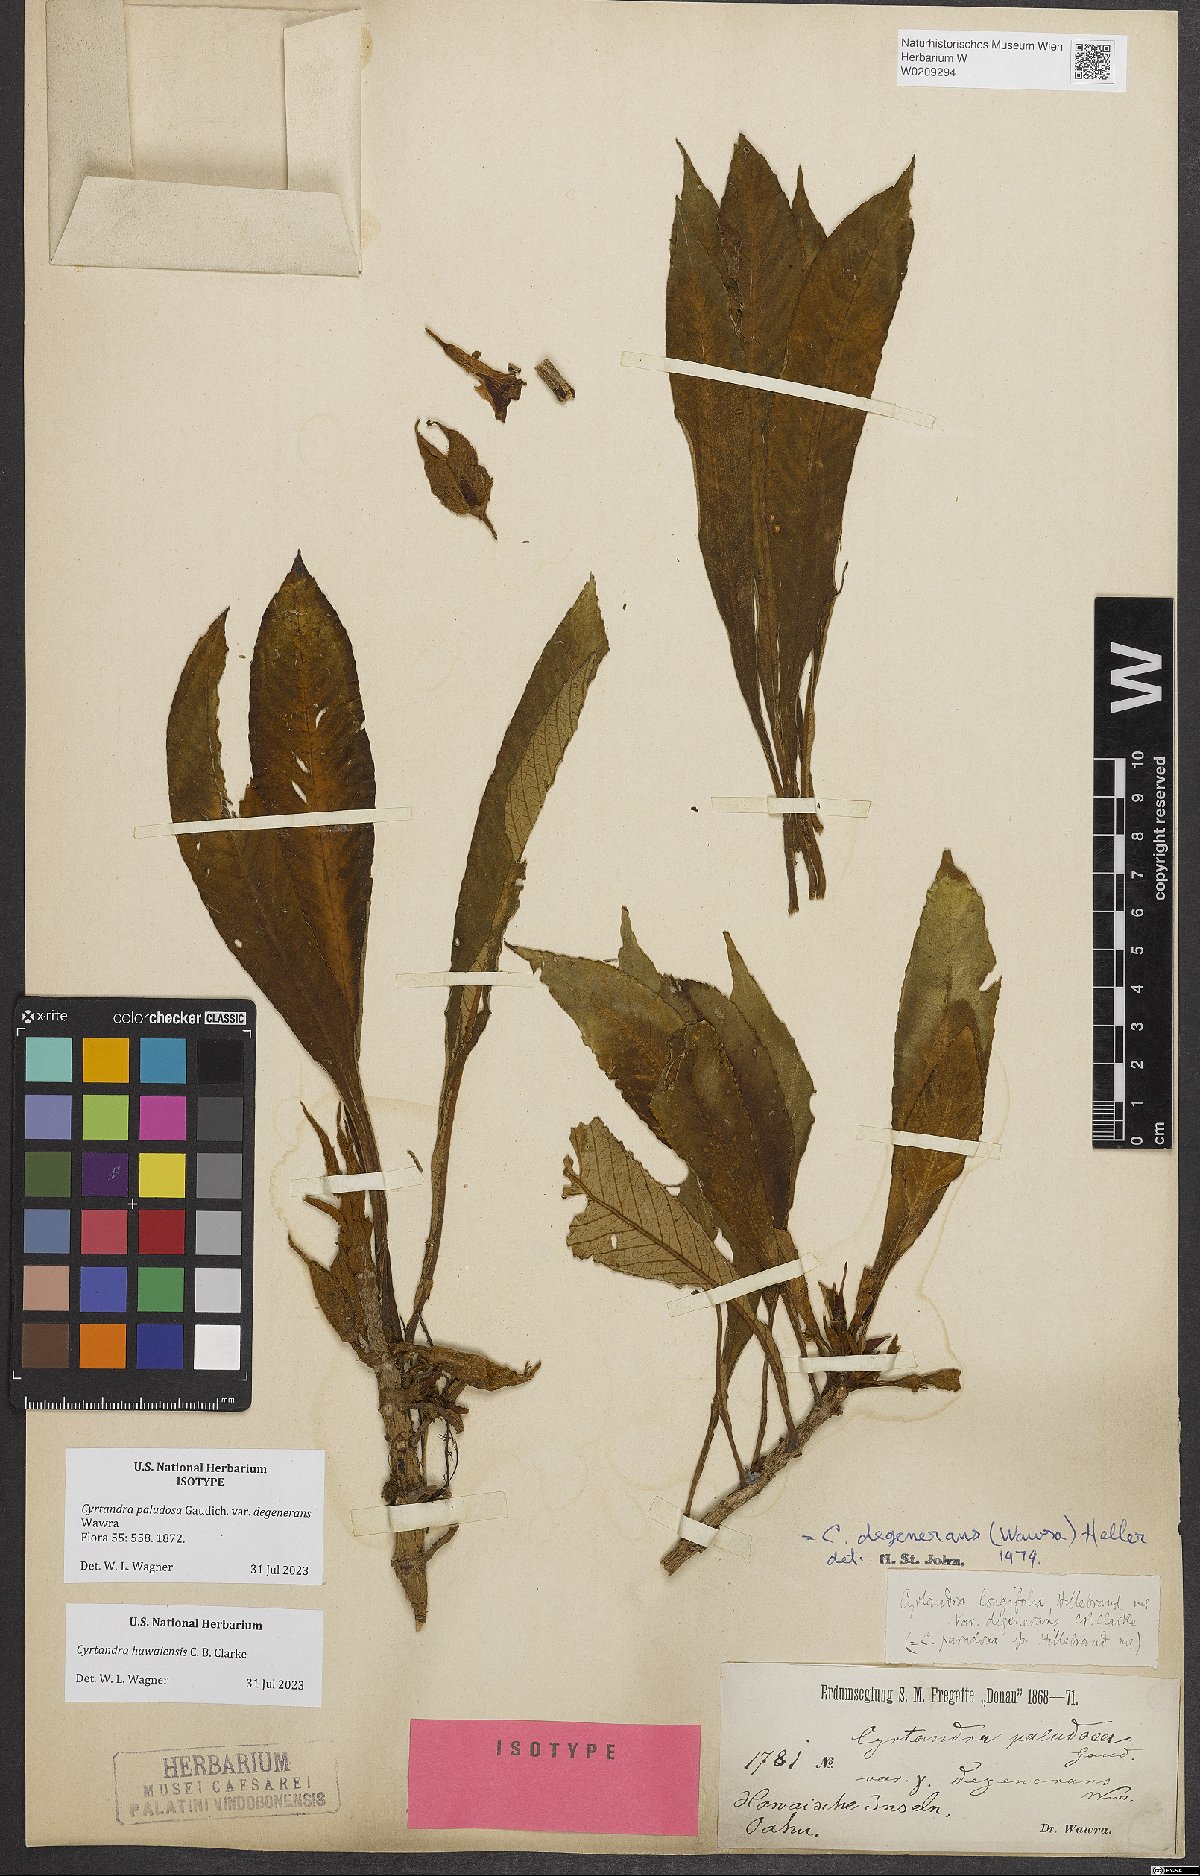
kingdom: Plantae
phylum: Tracheophyta
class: Magnoliopsida
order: Lamiales
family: Gesneriaceae
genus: Cyrtandra
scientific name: Cyrtandra hawaiensis
